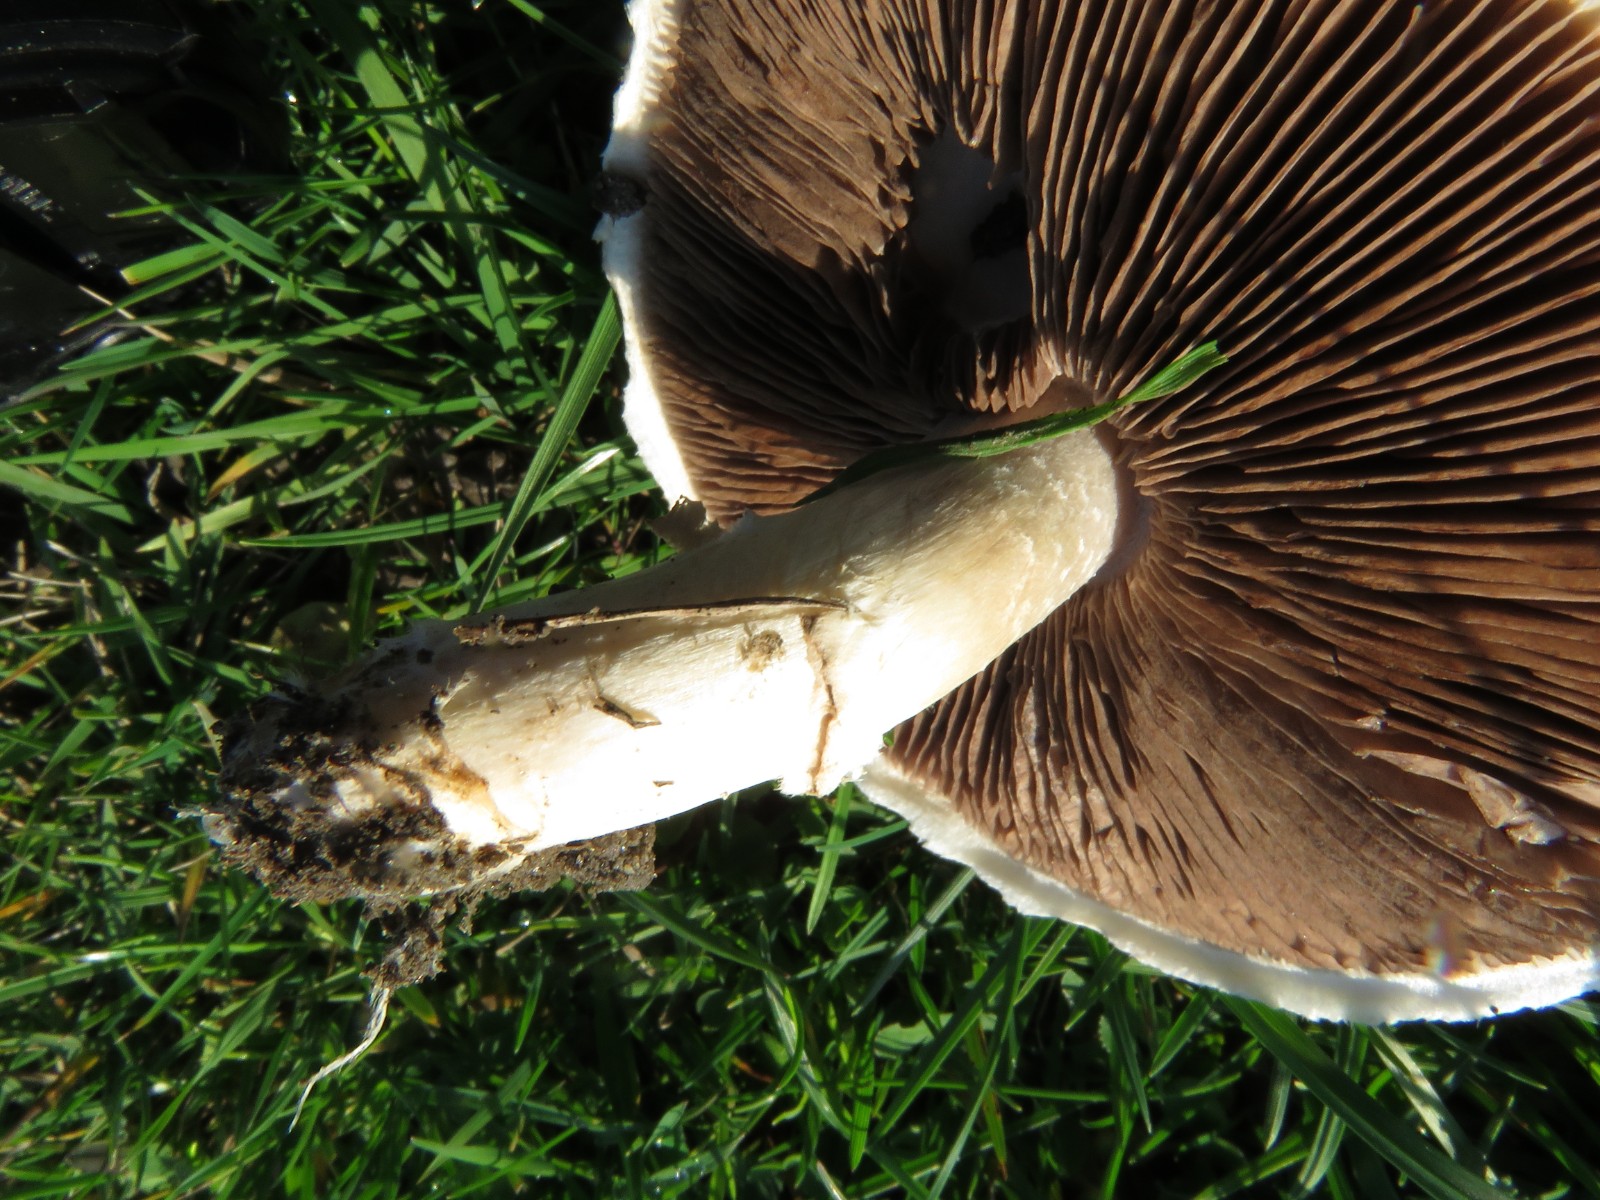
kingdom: Fungi
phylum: Basidiomycota
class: Agaricomycetes
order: Agaricales
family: Agaricaceae
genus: Agaricus
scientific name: Agaricus campestris
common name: mark-champignon
